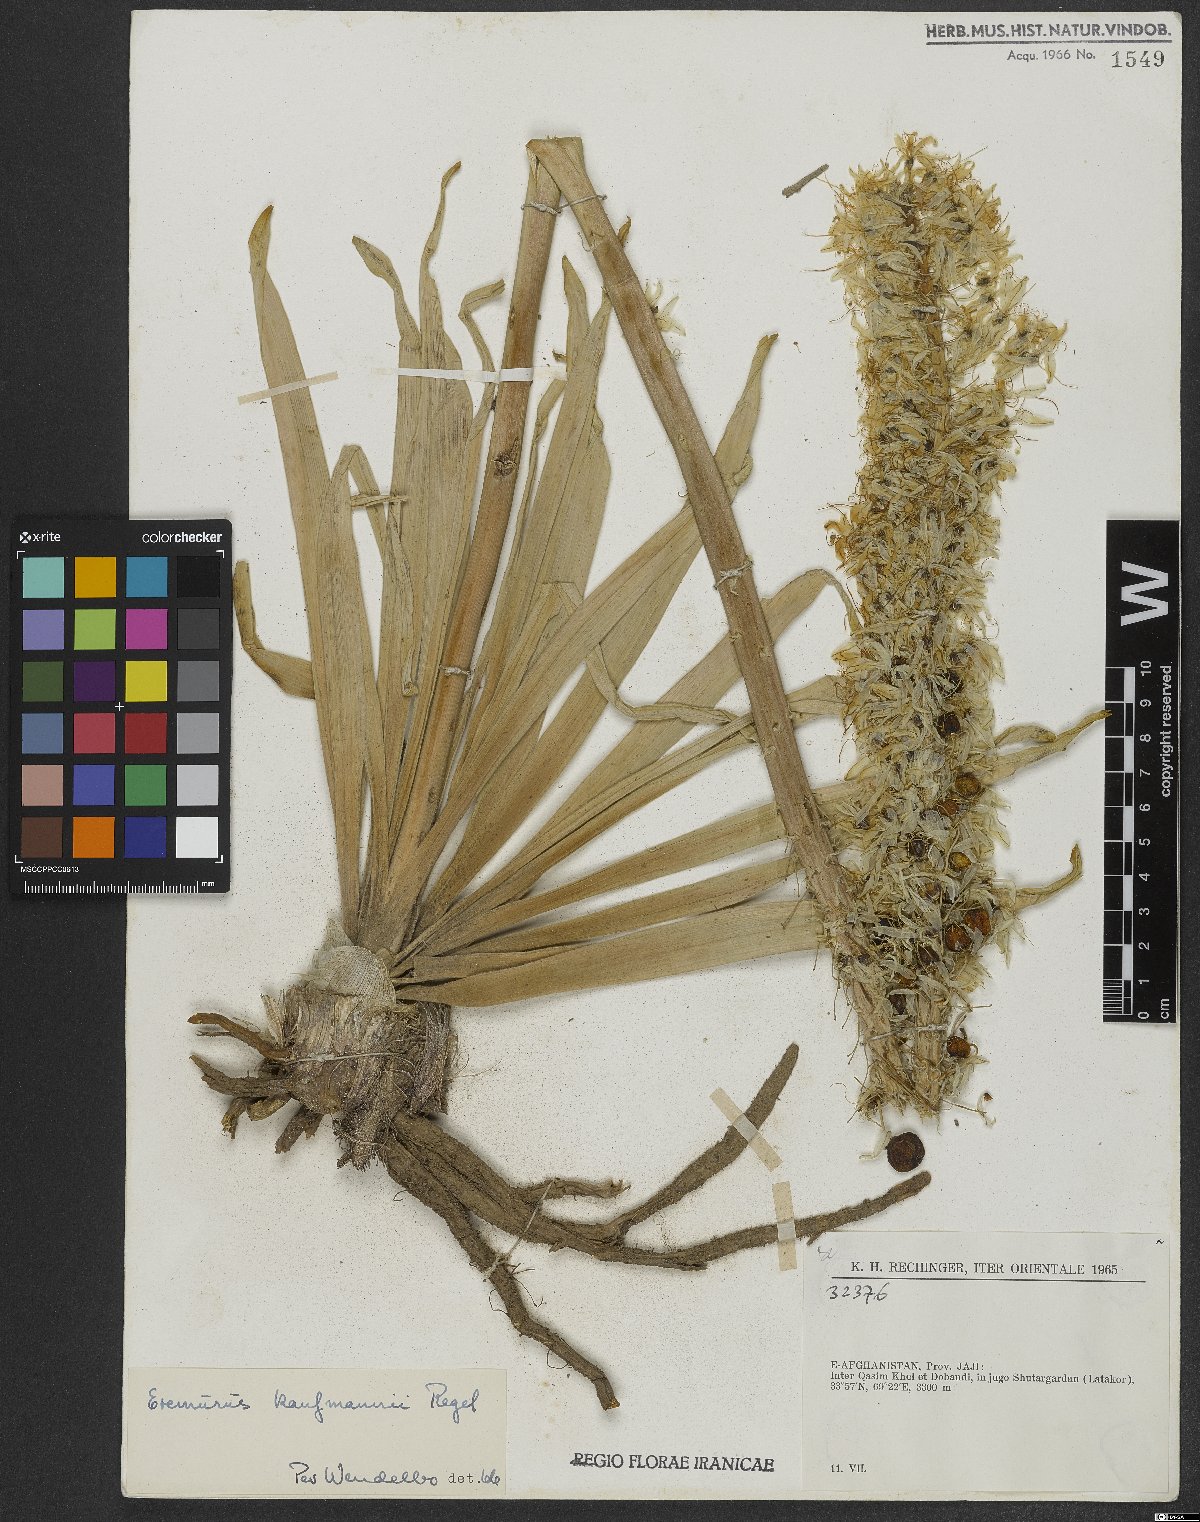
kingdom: Plantae
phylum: Tracheophyta
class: Liliopsida
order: Asparagales
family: Asphodelaceae
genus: Eremurus
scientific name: Eremurus kaufmannii
